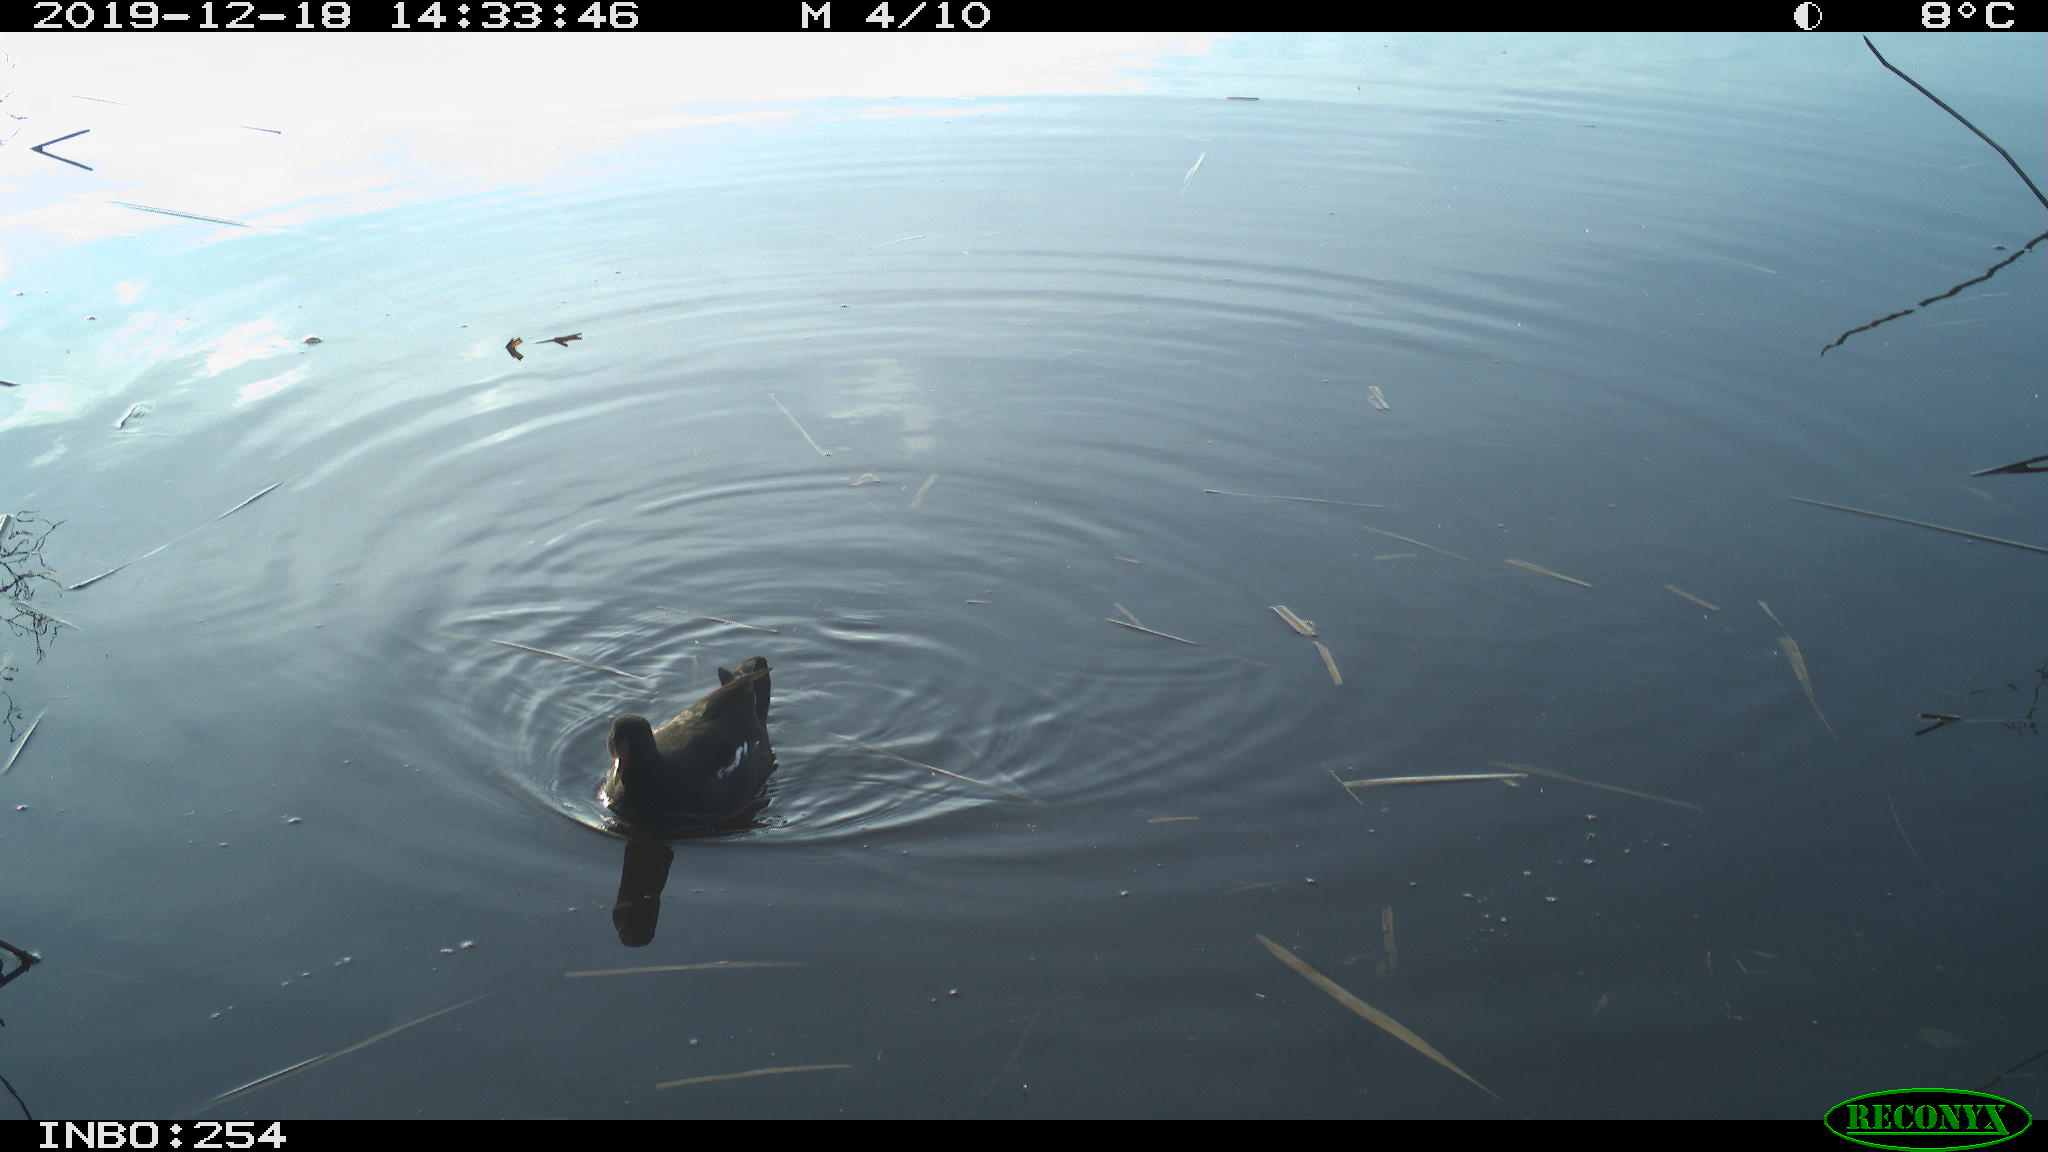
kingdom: Animalia
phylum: Chordata
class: Aves
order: Gruiformes
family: Rallidae
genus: Gallinula
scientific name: Gallinula chloropus
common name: Common moorhen
